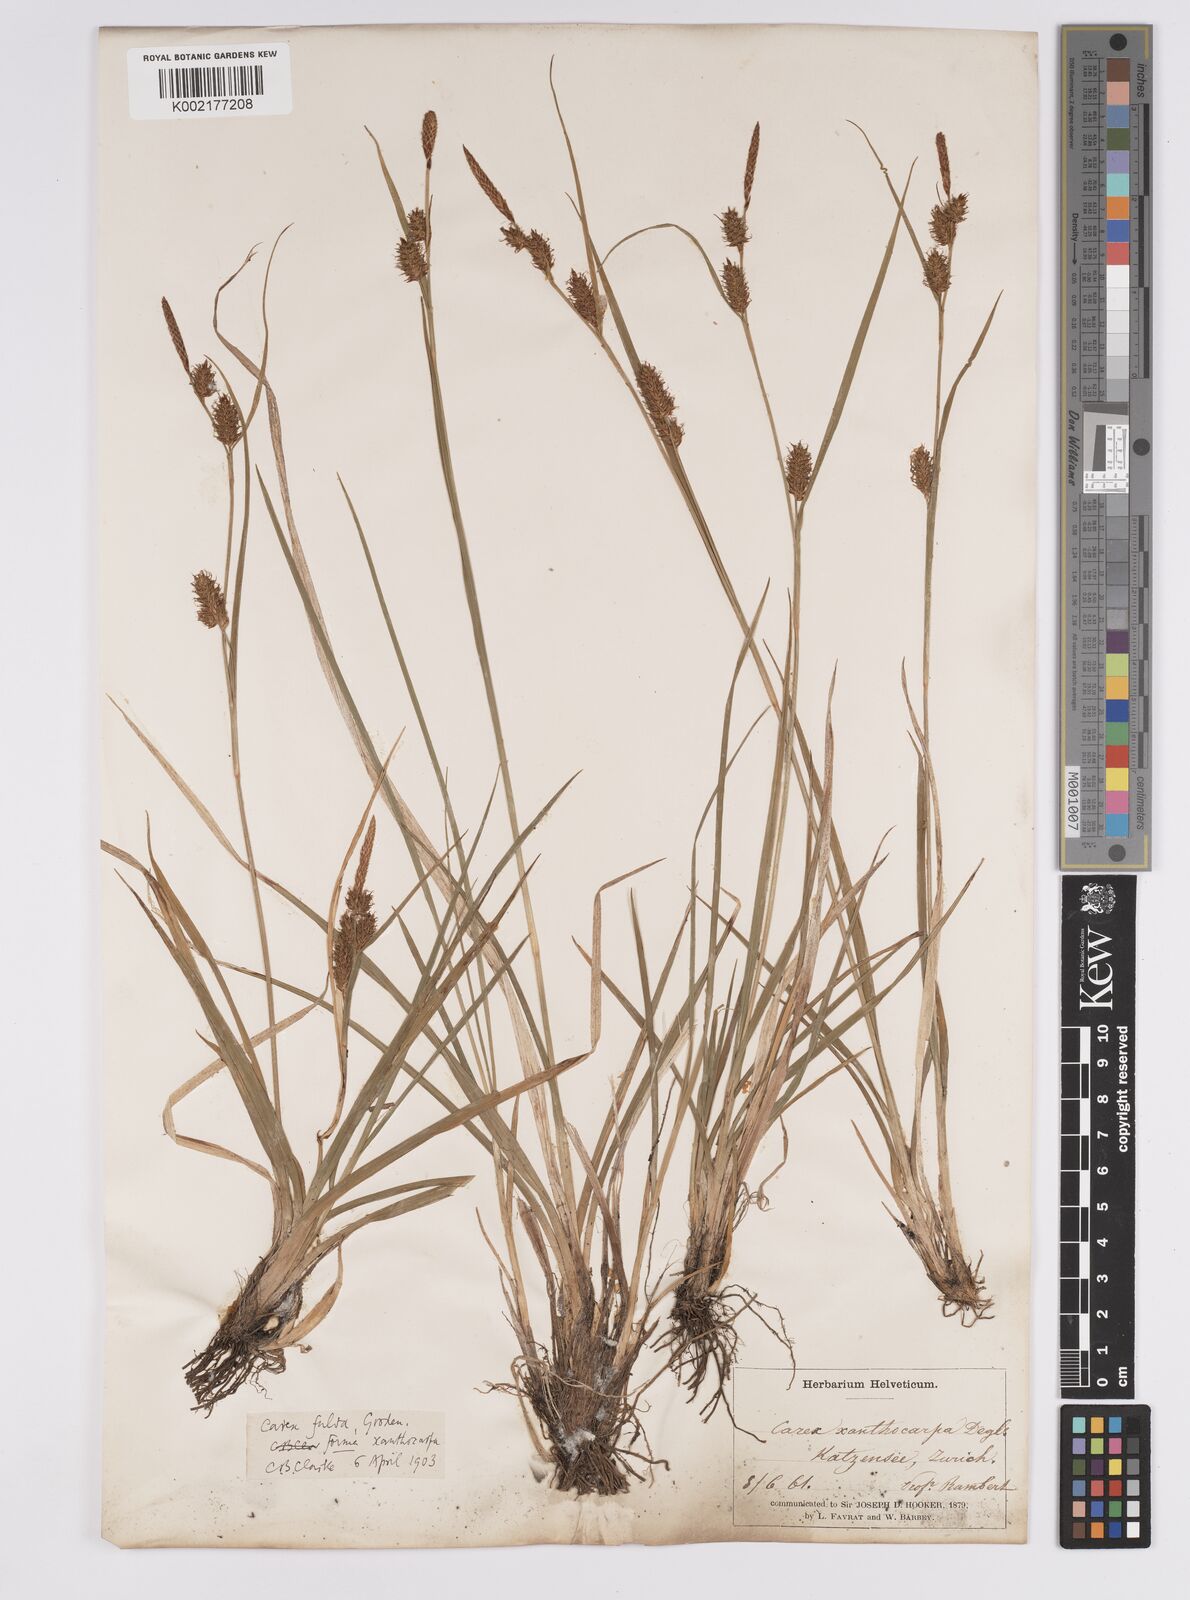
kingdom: Plantae
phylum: Tracheophyta
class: Liliopsida
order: Poales
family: Cyperaceae
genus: Carex
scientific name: Carex hostiana
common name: Tawny sedge
